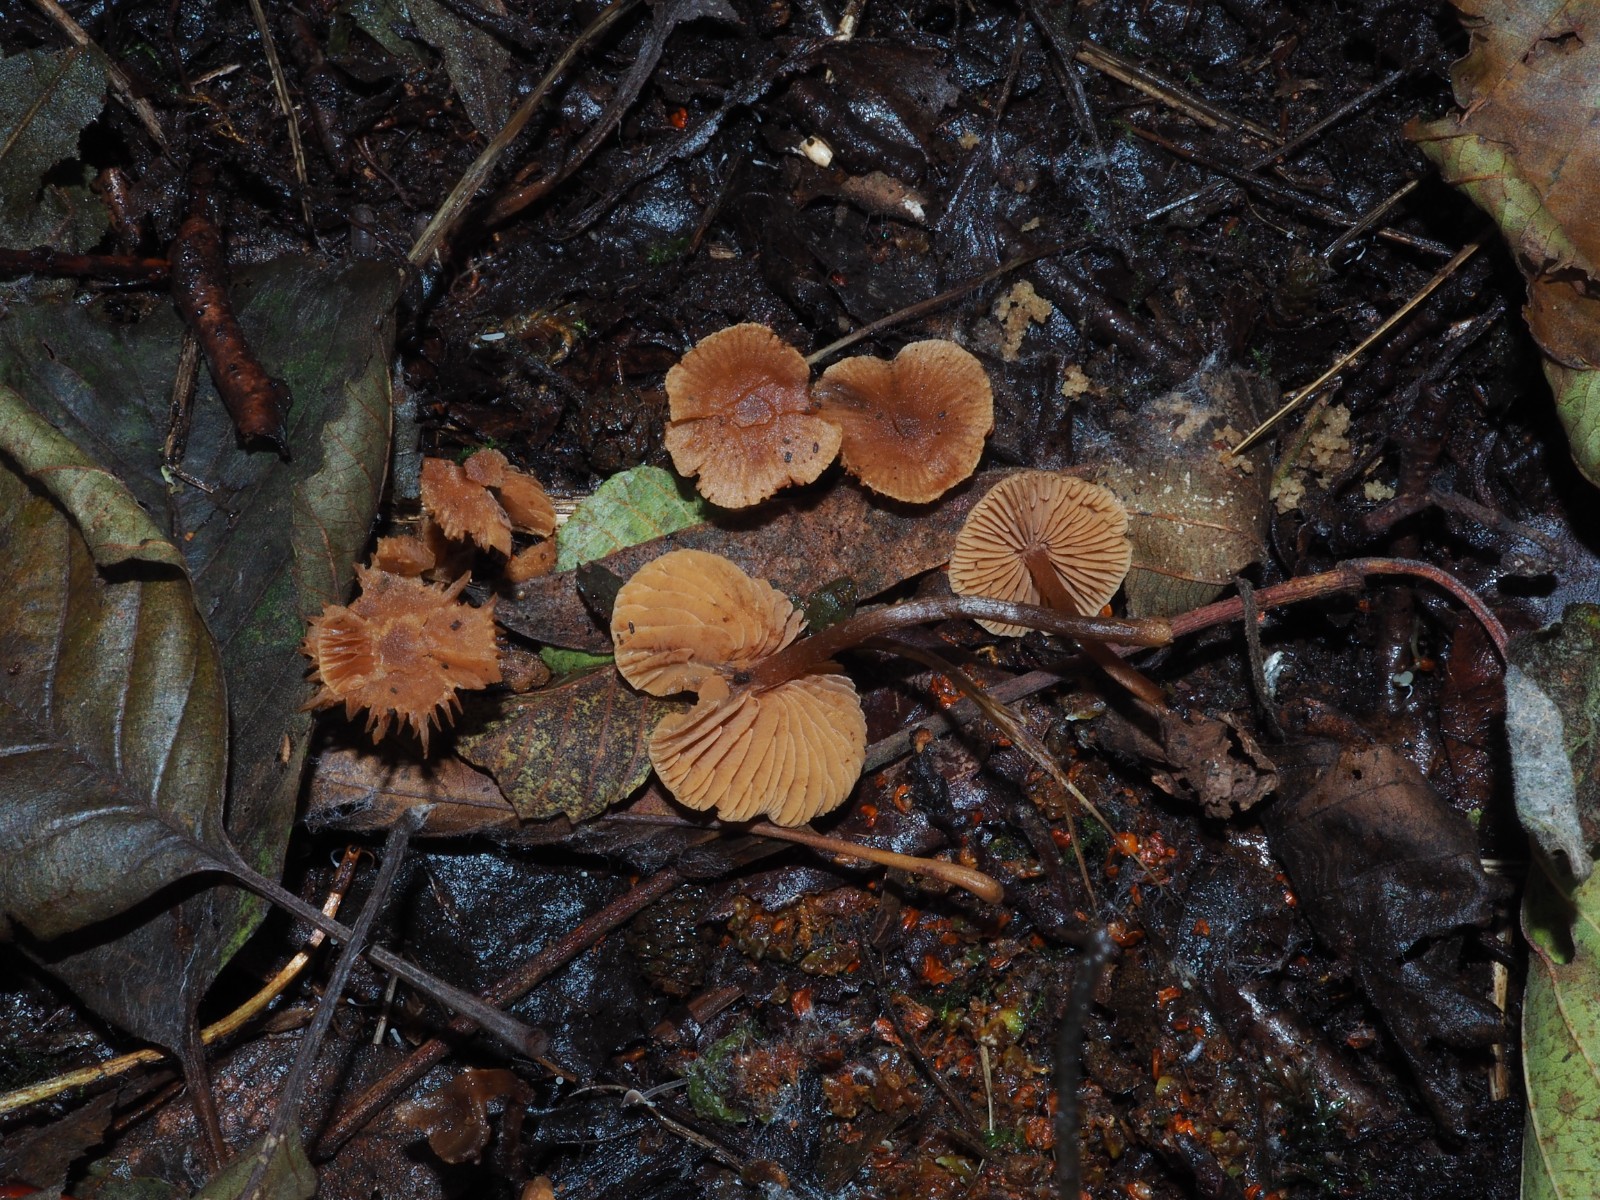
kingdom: Fungi
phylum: Basidiomycota
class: Agaricomycetes
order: Agaricales
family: Hymenogastraceae
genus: Naucoria
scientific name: Naucoria scolecina
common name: mørk elle-knaphat
